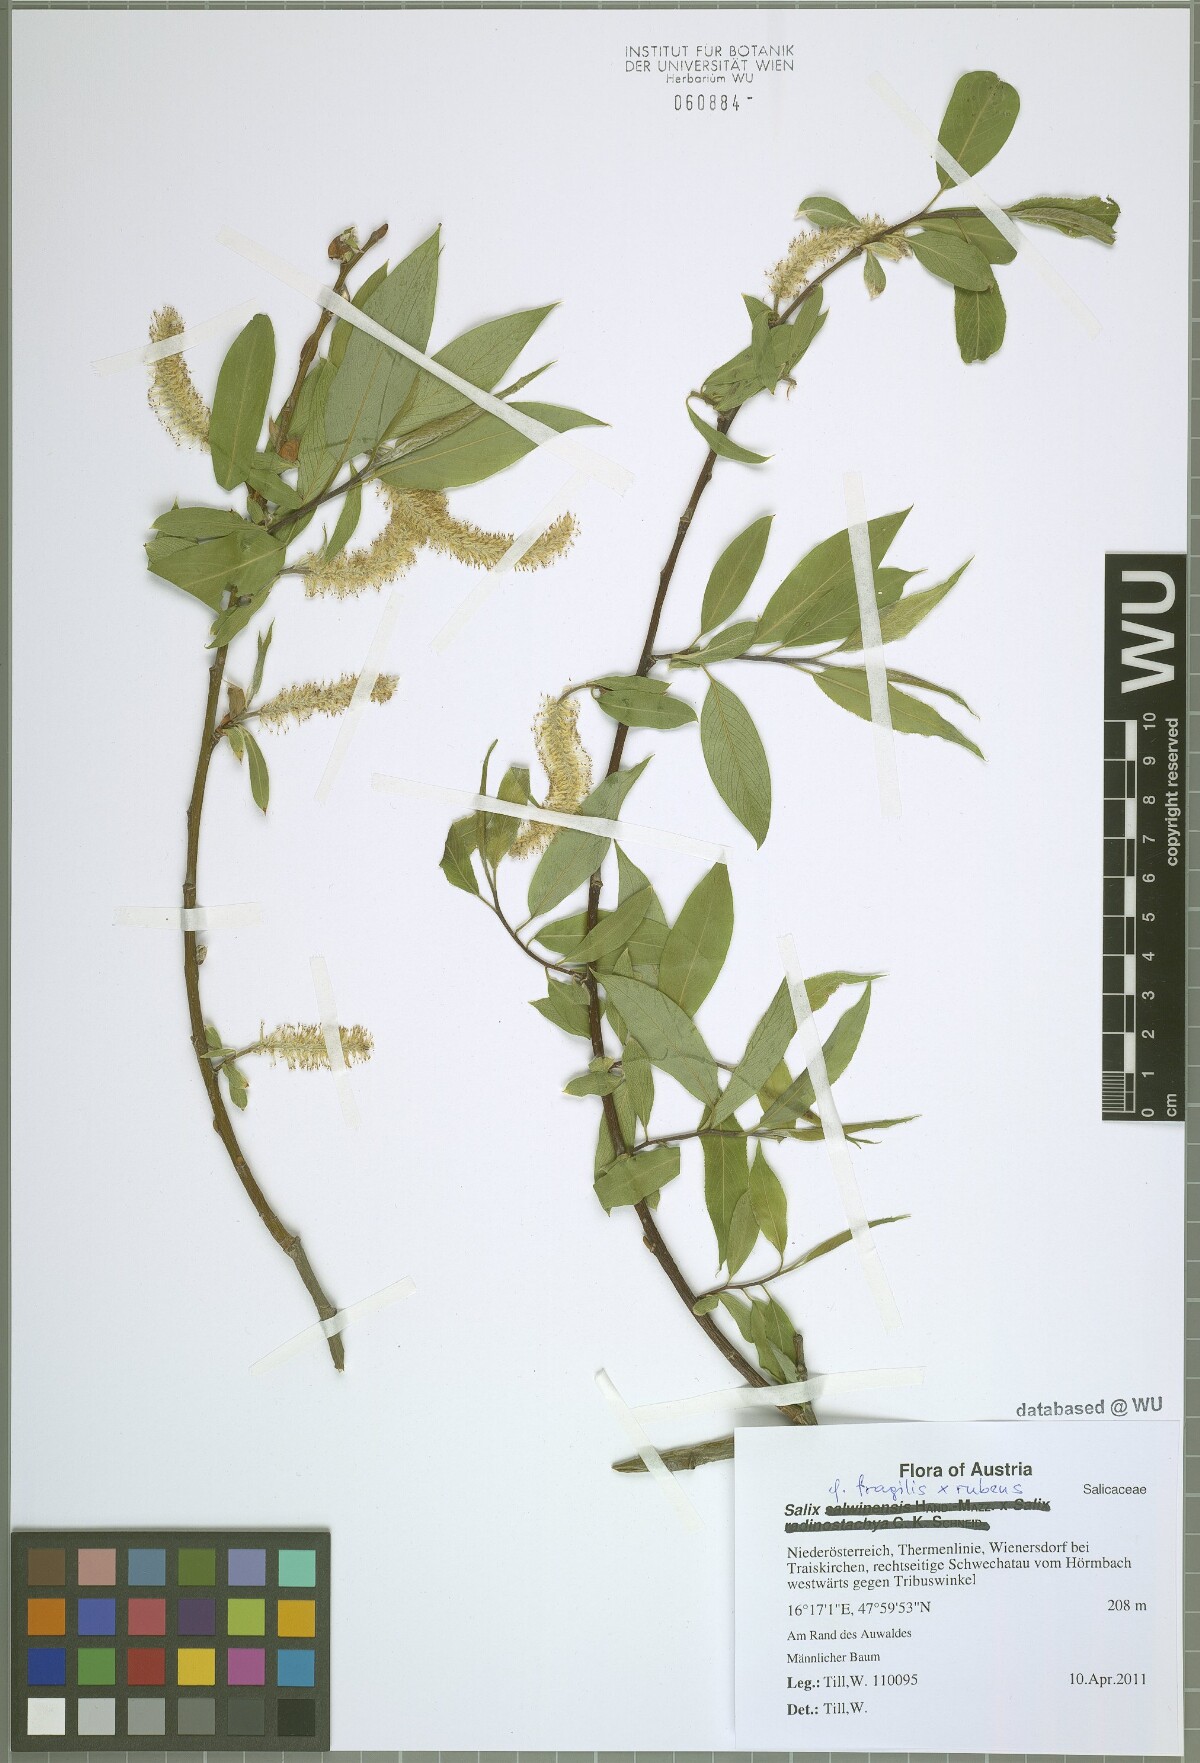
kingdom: Plantae
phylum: Tracheophyta
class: Magnoliopsida
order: Malpighiales
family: Salicaceae
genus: Salix
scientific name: Salix rubens
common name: Hybrid crack willow
